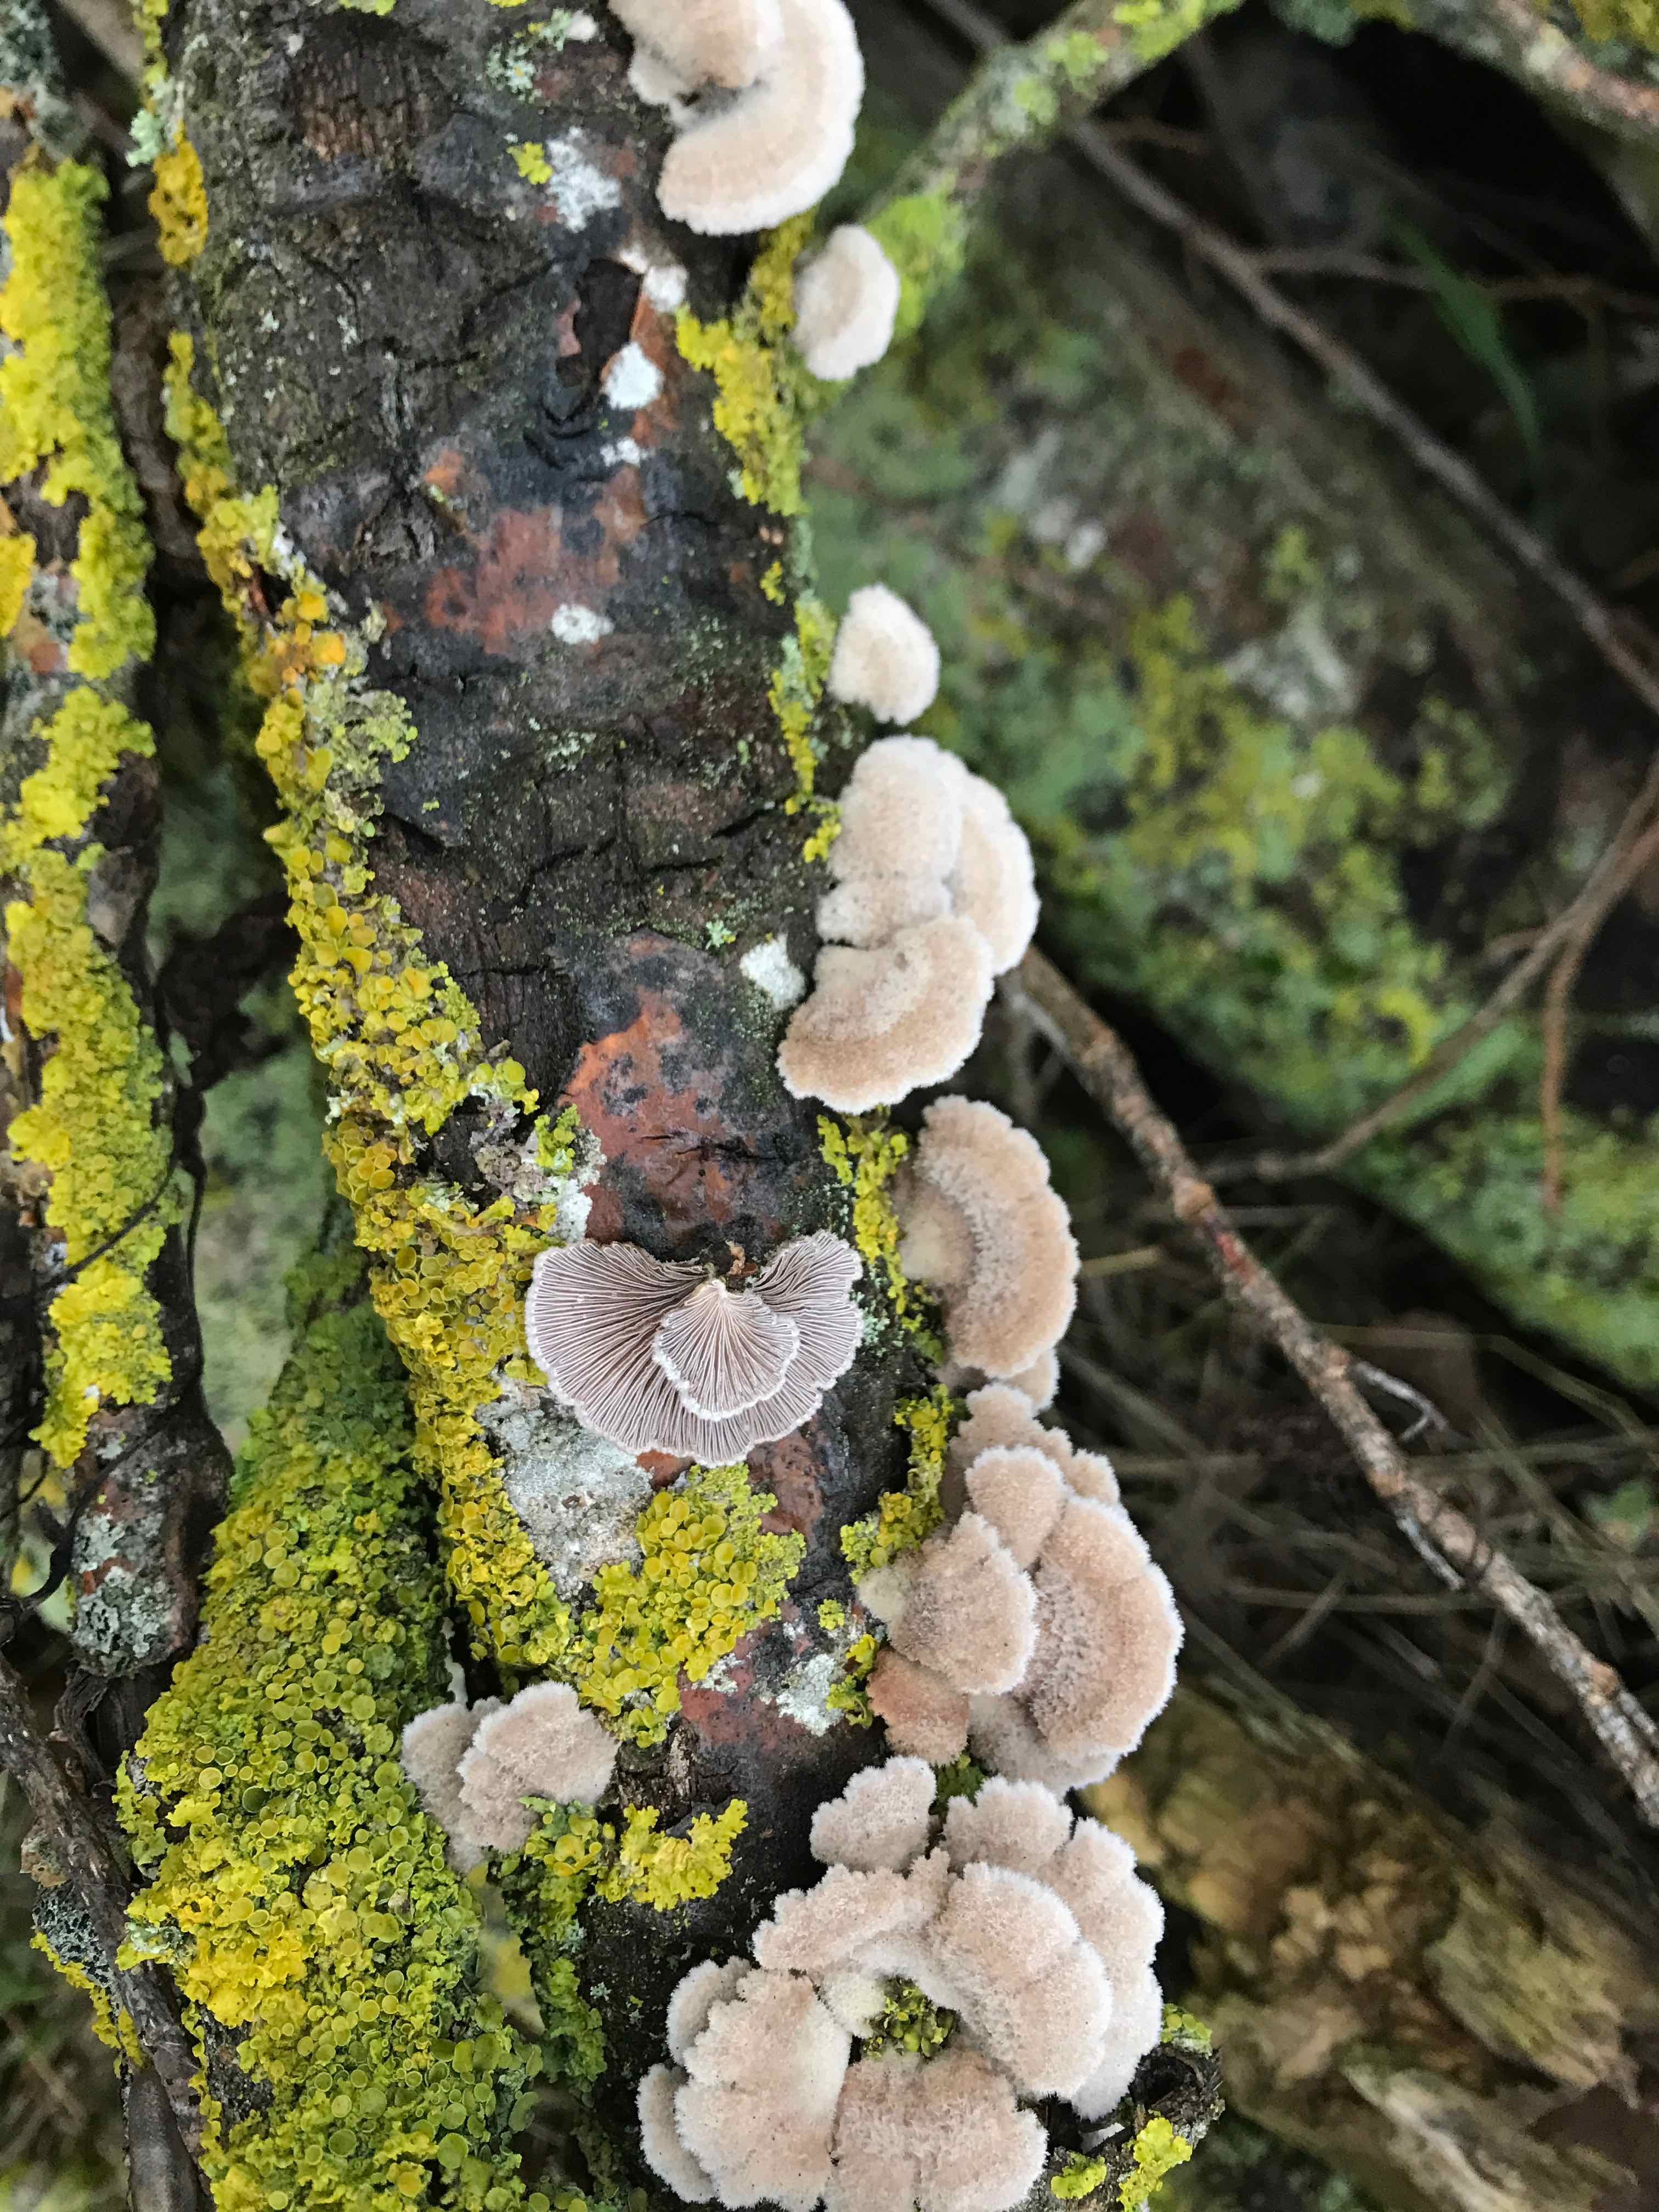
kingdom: Fungi
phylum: Basidiomycota
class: Agaricomycetes
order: Agaricales
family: Schizophyllaceae
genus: Schizophyllum
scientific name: Schizophyllum commune
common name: kløvblad
